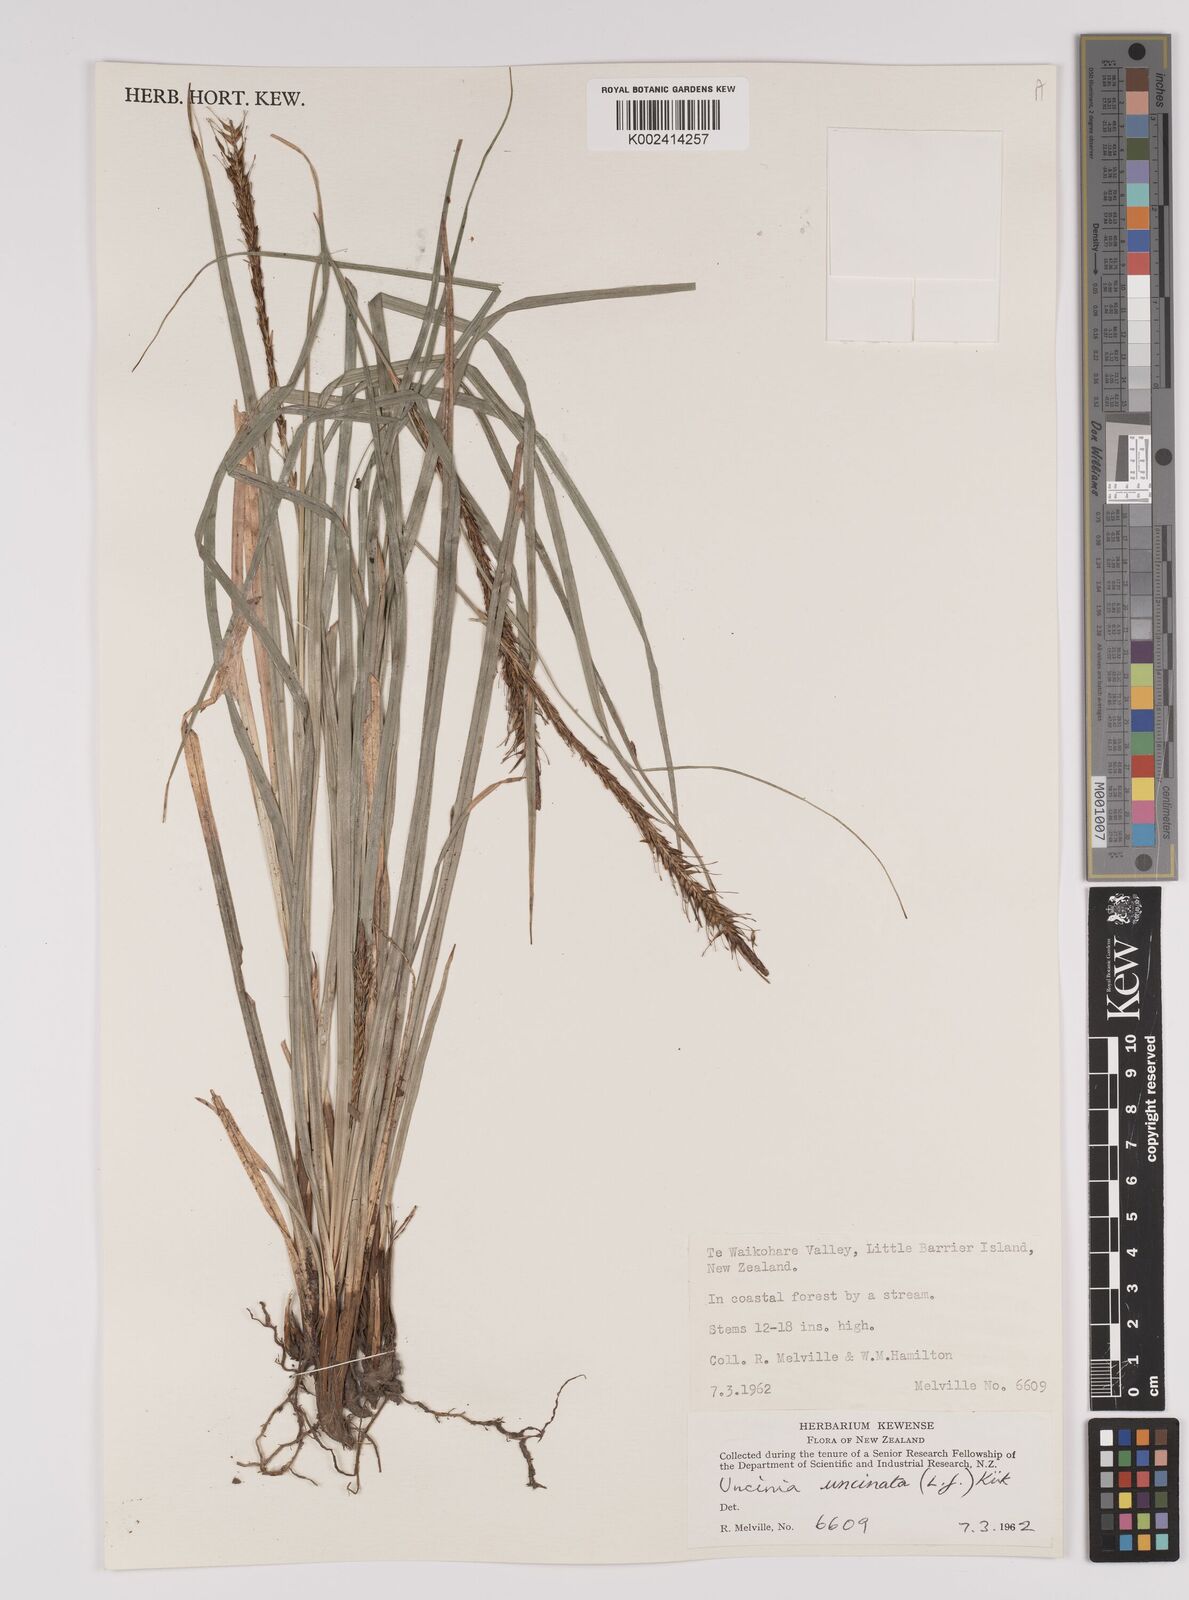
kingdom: Plantae
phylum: Tracheophyta
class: Liliopsida
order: Poales
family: Cyperaceae
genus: Carex
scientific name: Carex uncinata
